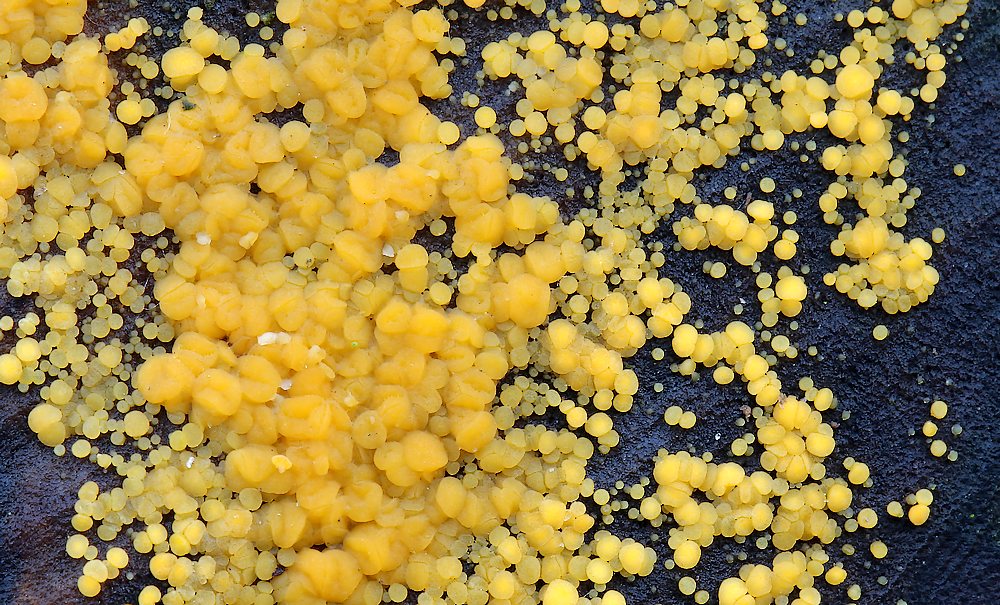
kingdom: Fungi
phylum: Ascomycota
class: Leotiomycetes
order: Helotiales
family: Pezizellaceae
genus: Calycina
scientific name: Calycina
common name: gulskive
